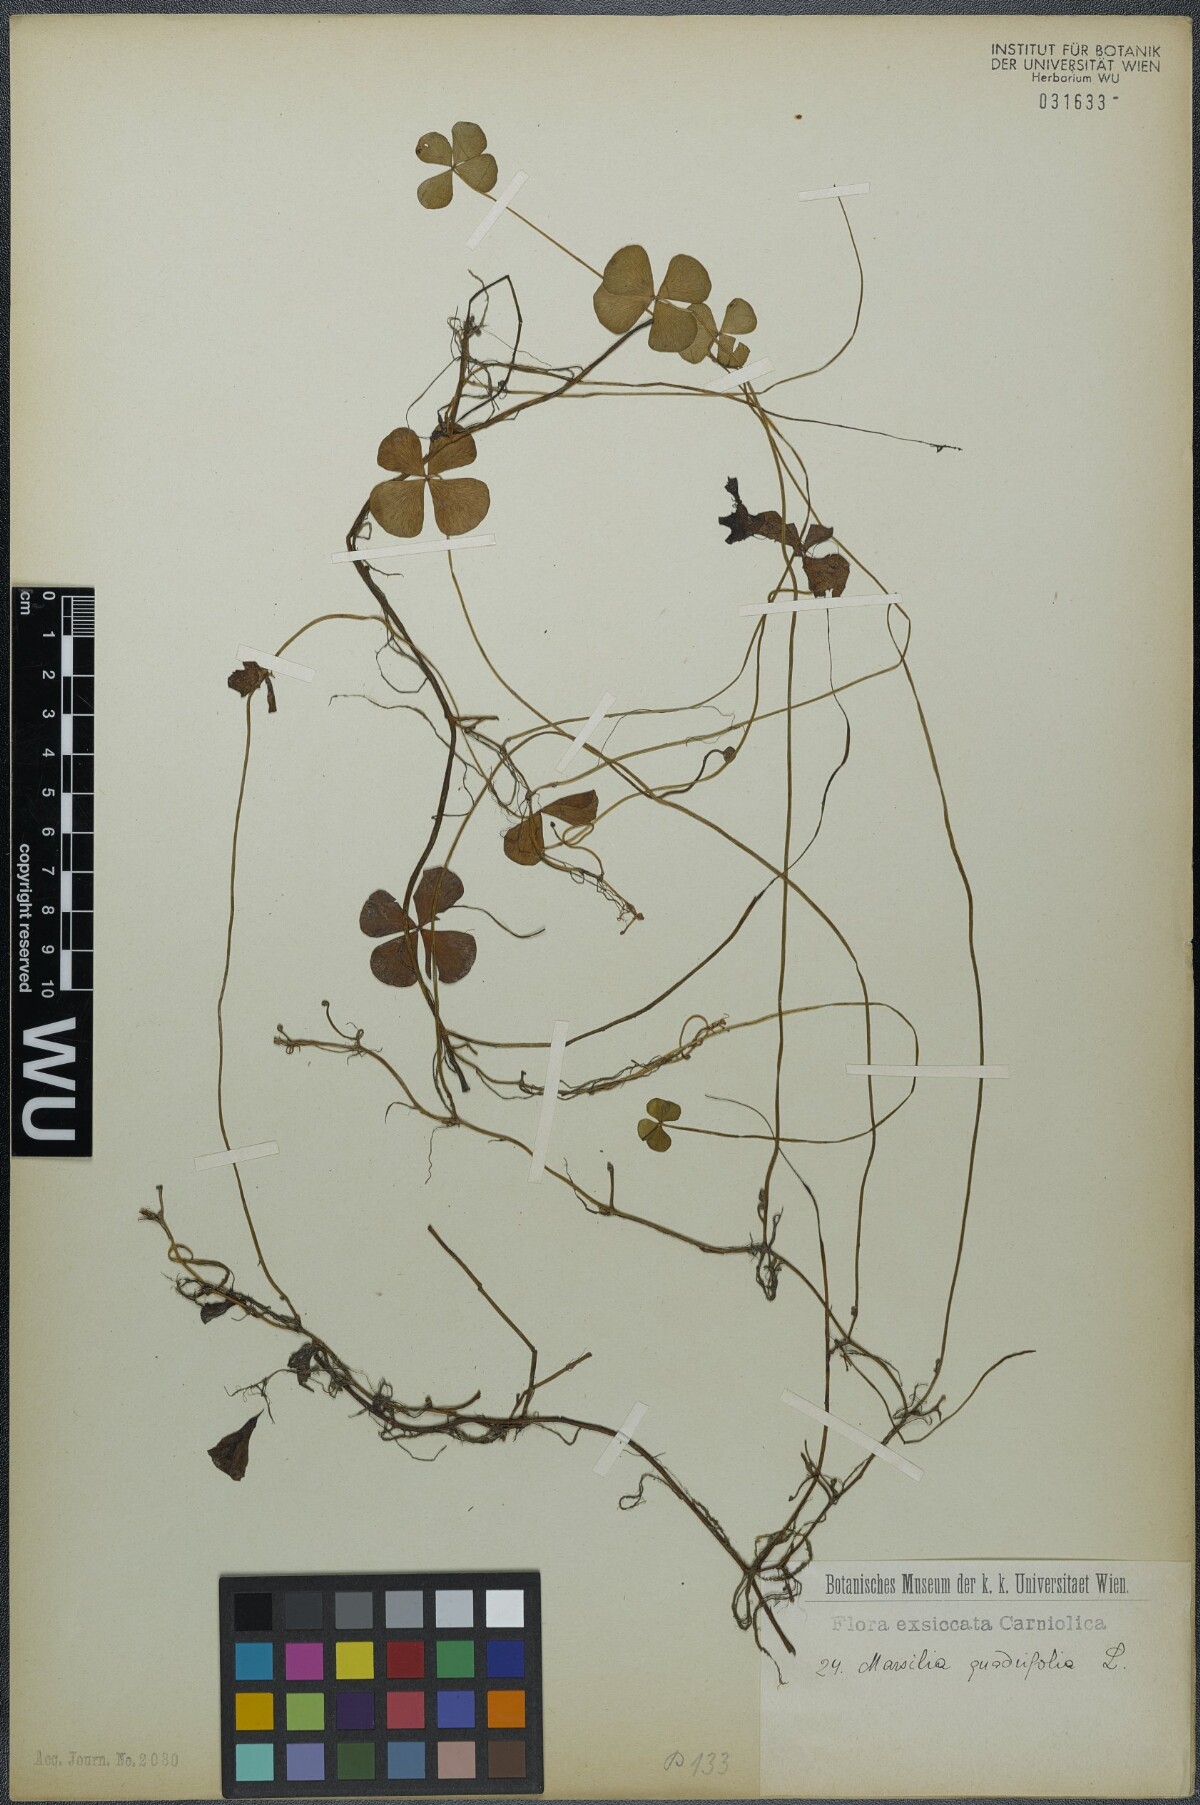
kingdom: Plantae
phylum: Tracheophyta
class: Polypodiopsida
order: Salviniales
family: Marsileaceae
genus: Marsilea
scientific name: Marsilea quadrifolia
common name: Water shamrock
